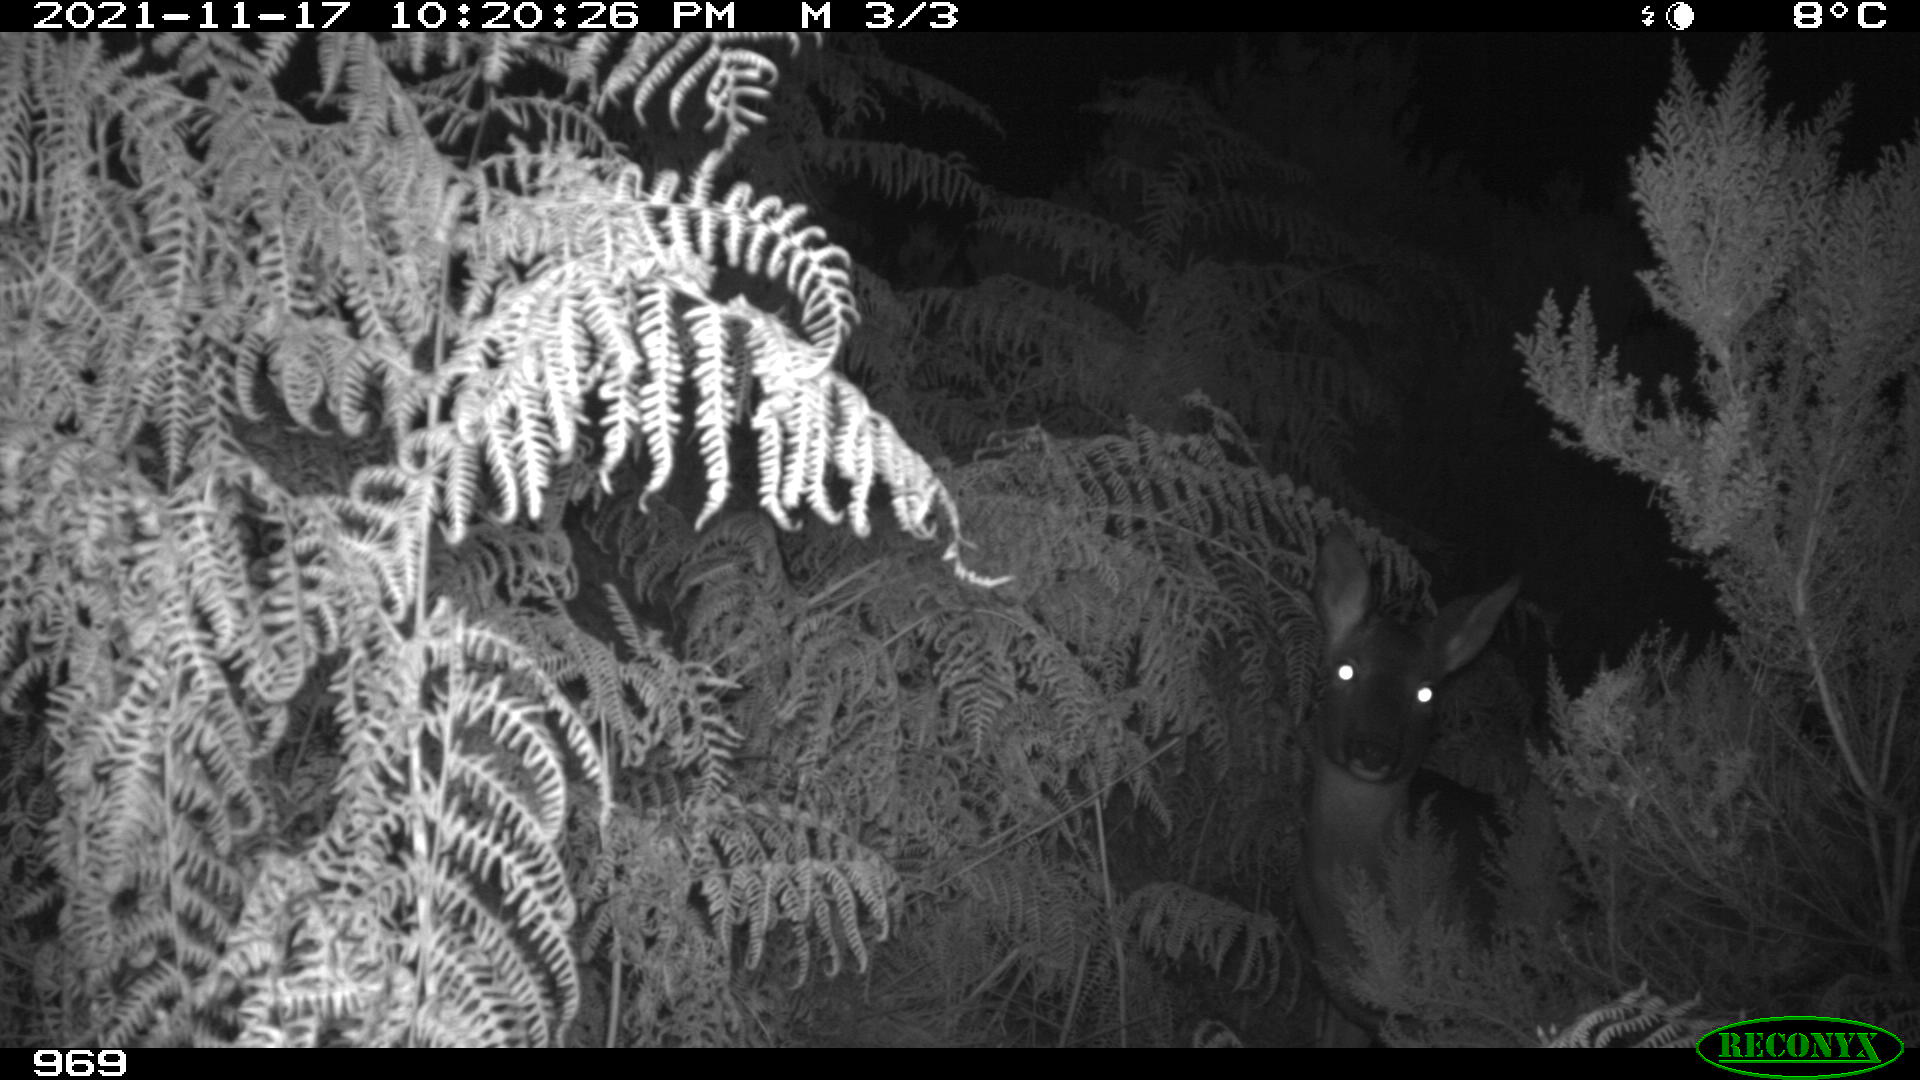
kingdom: Animalia
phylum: Chordata
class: Mammalia
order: Artiodactyla
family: Cervidae
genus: Cervus
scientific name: Cervus elaphus
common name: Red deer
